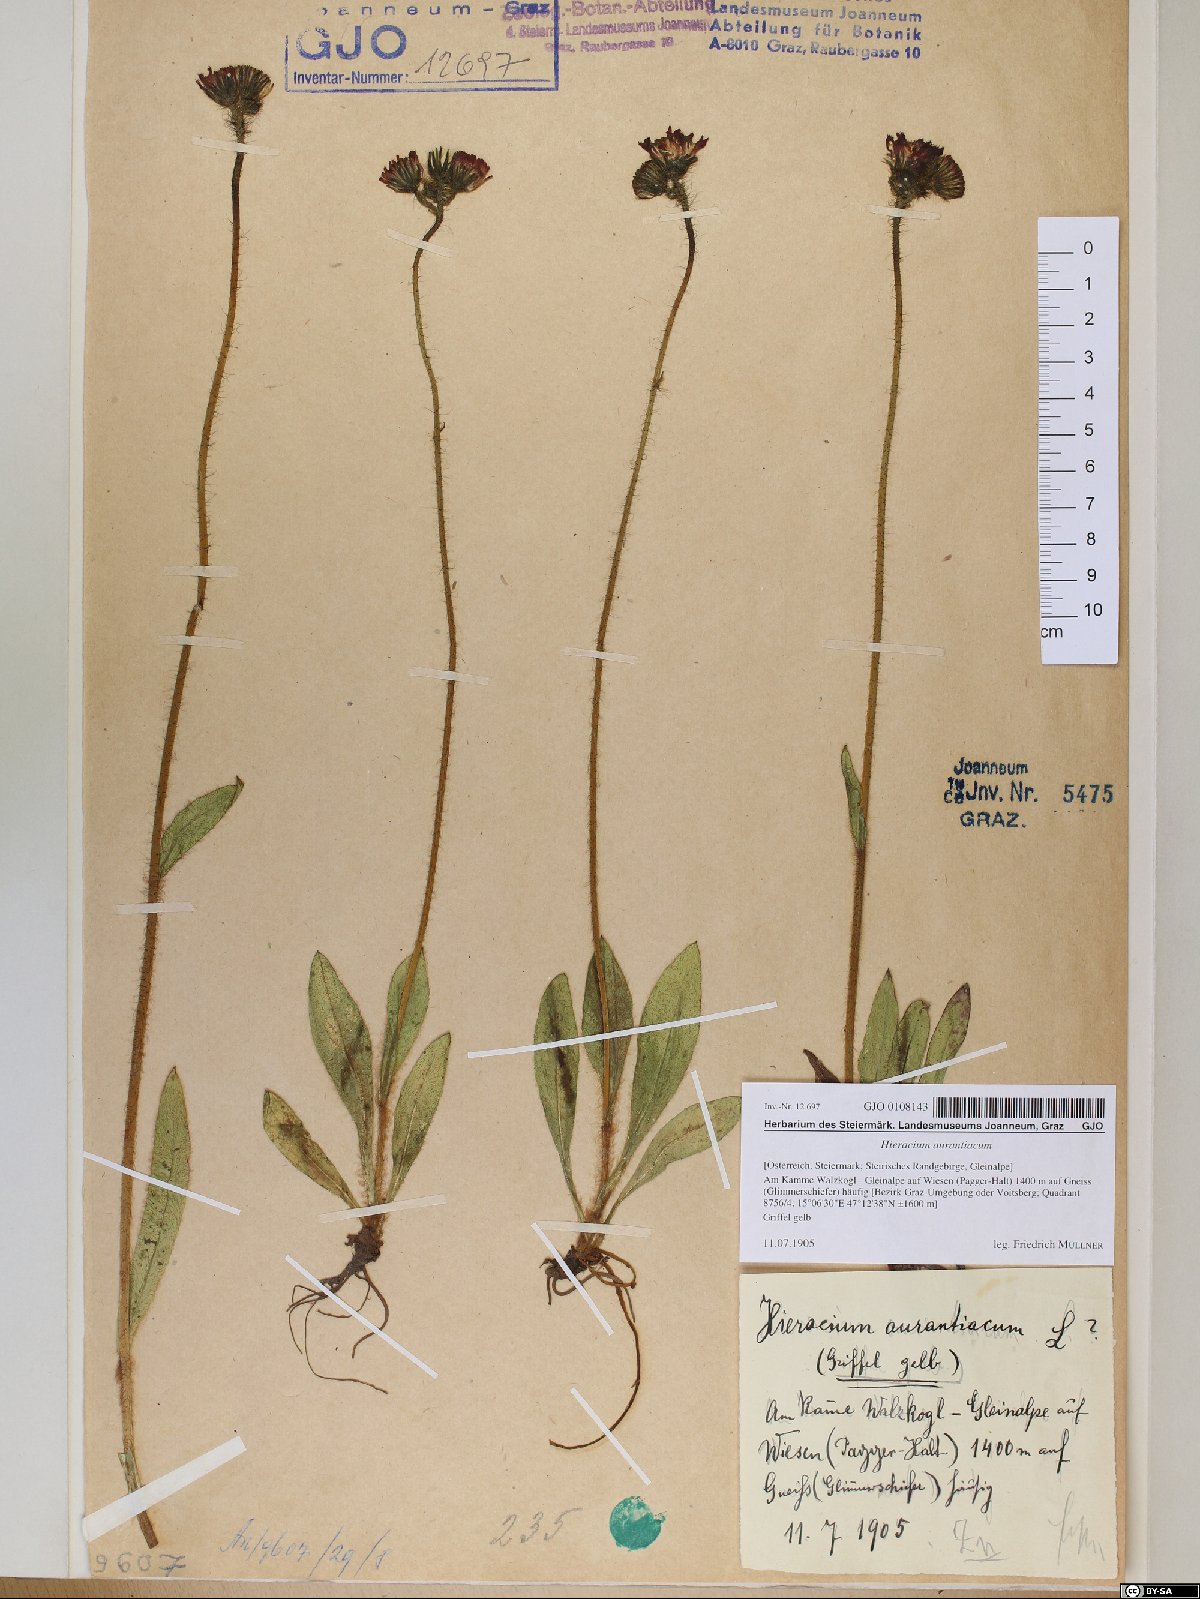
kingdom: Plantae
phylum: Tracheophyta
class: Magnoliopsida
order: Asterales
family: Asteraceae
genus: Pilosella
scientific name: Pilosella aurantiaca
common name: Fox-and-cubs
